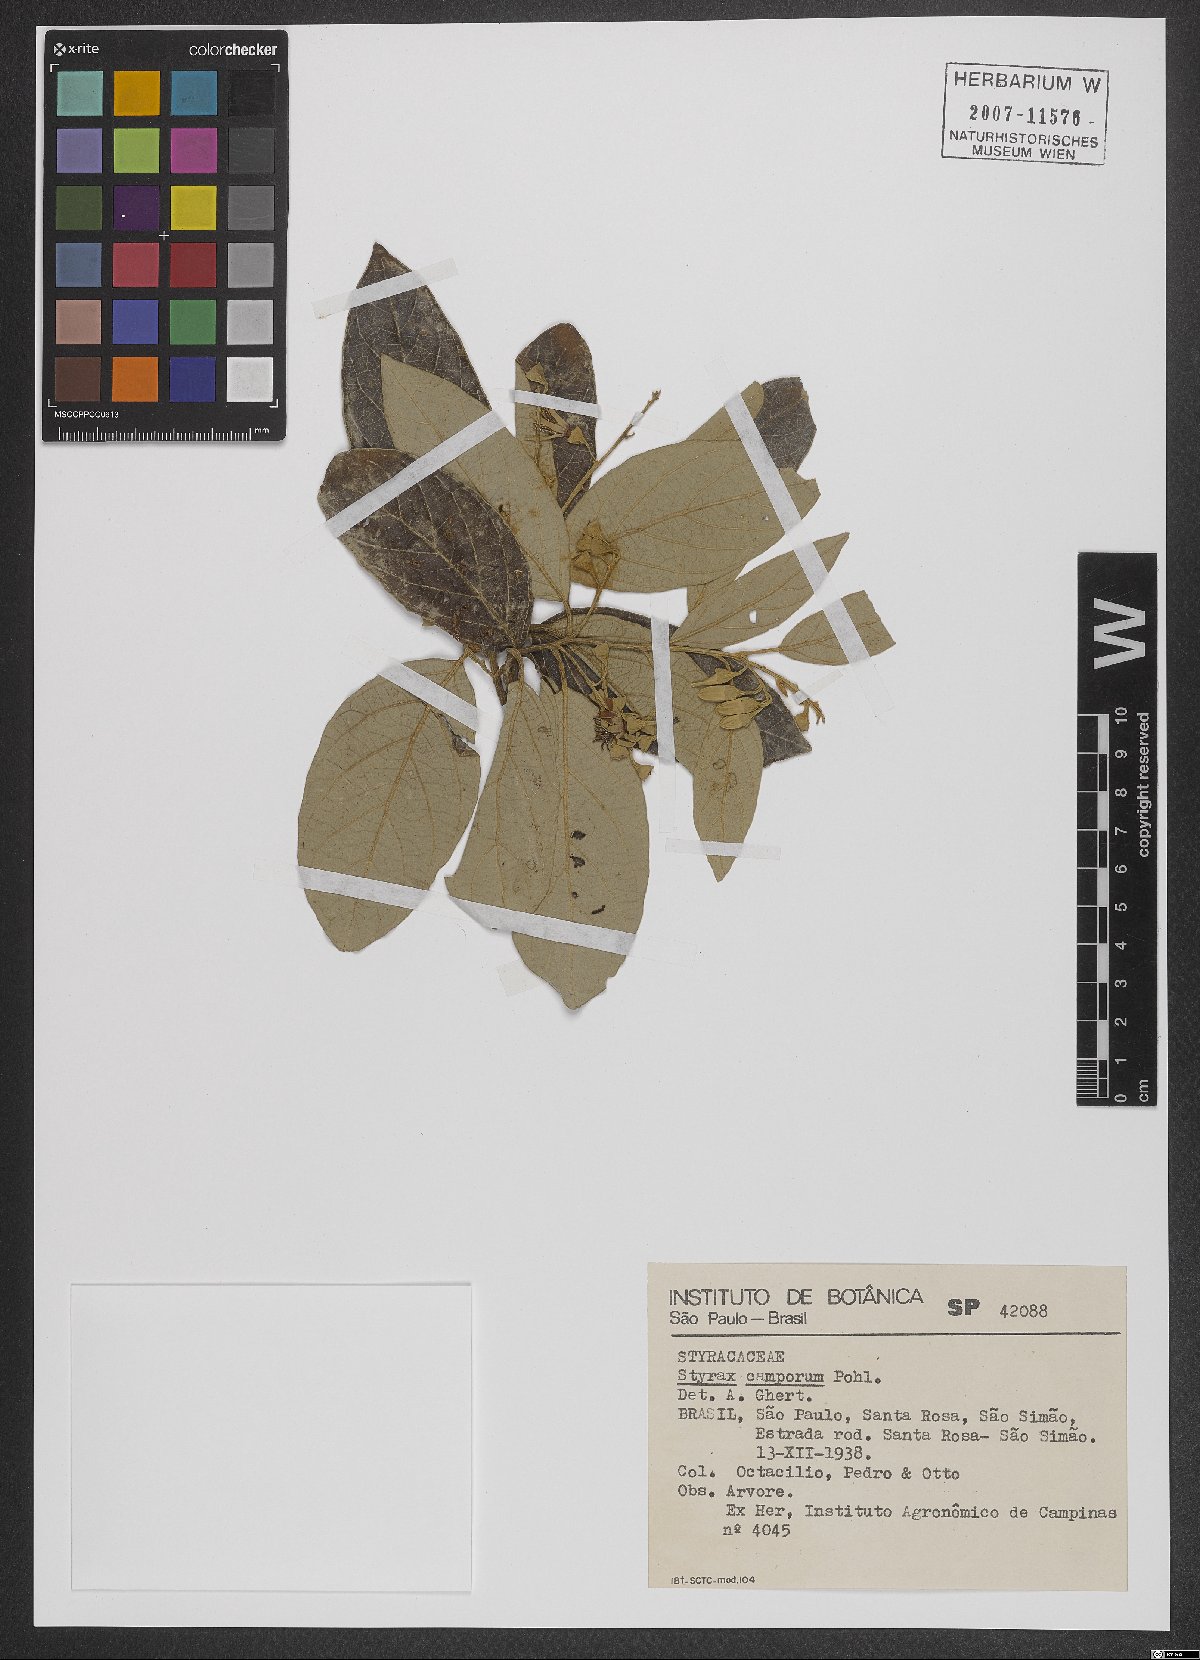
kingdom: Plantae
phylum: Tracheophyta
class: Magnoliopsida
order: Ericales
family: Styracaceae
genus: Styrax
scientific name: Styrax camporum
